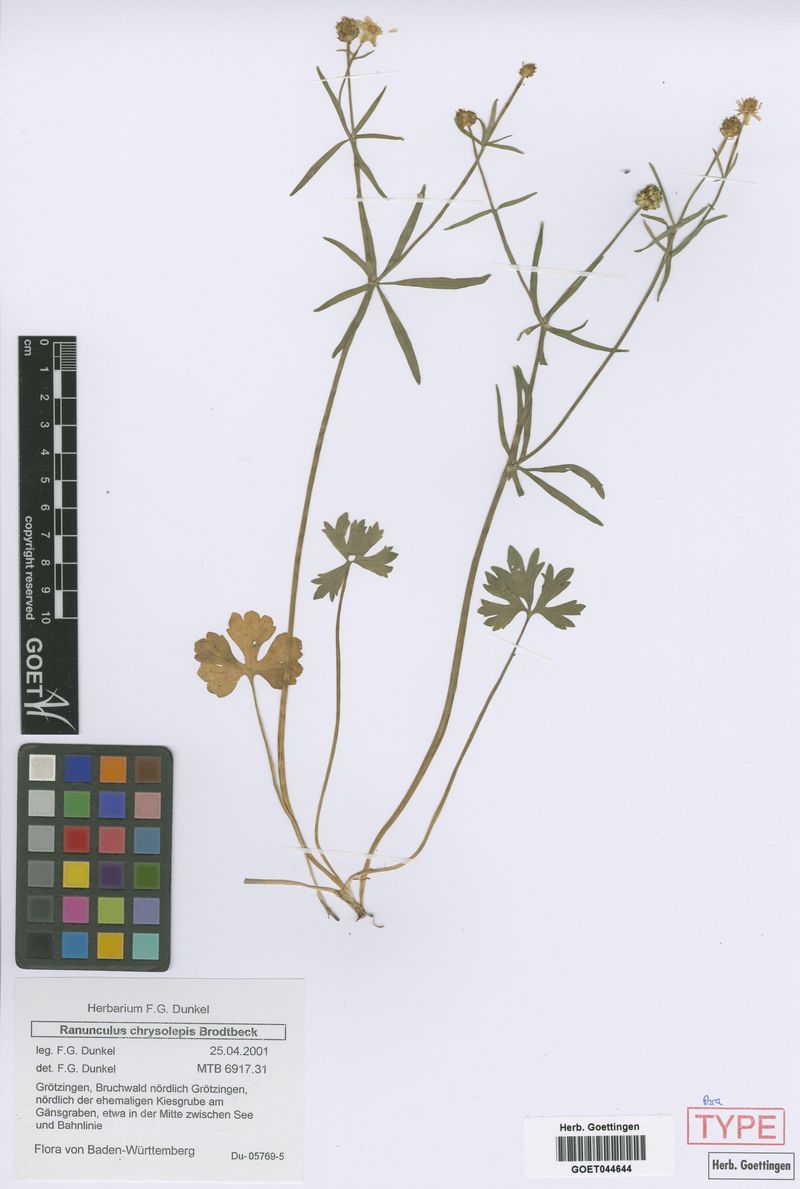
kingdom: Plantae
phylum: Tracheophyta
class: Magnoliopsida
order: Ranunculales
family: Ranunculaceae
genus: Ranunculus
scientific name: Ranunculus chrysoleptos
